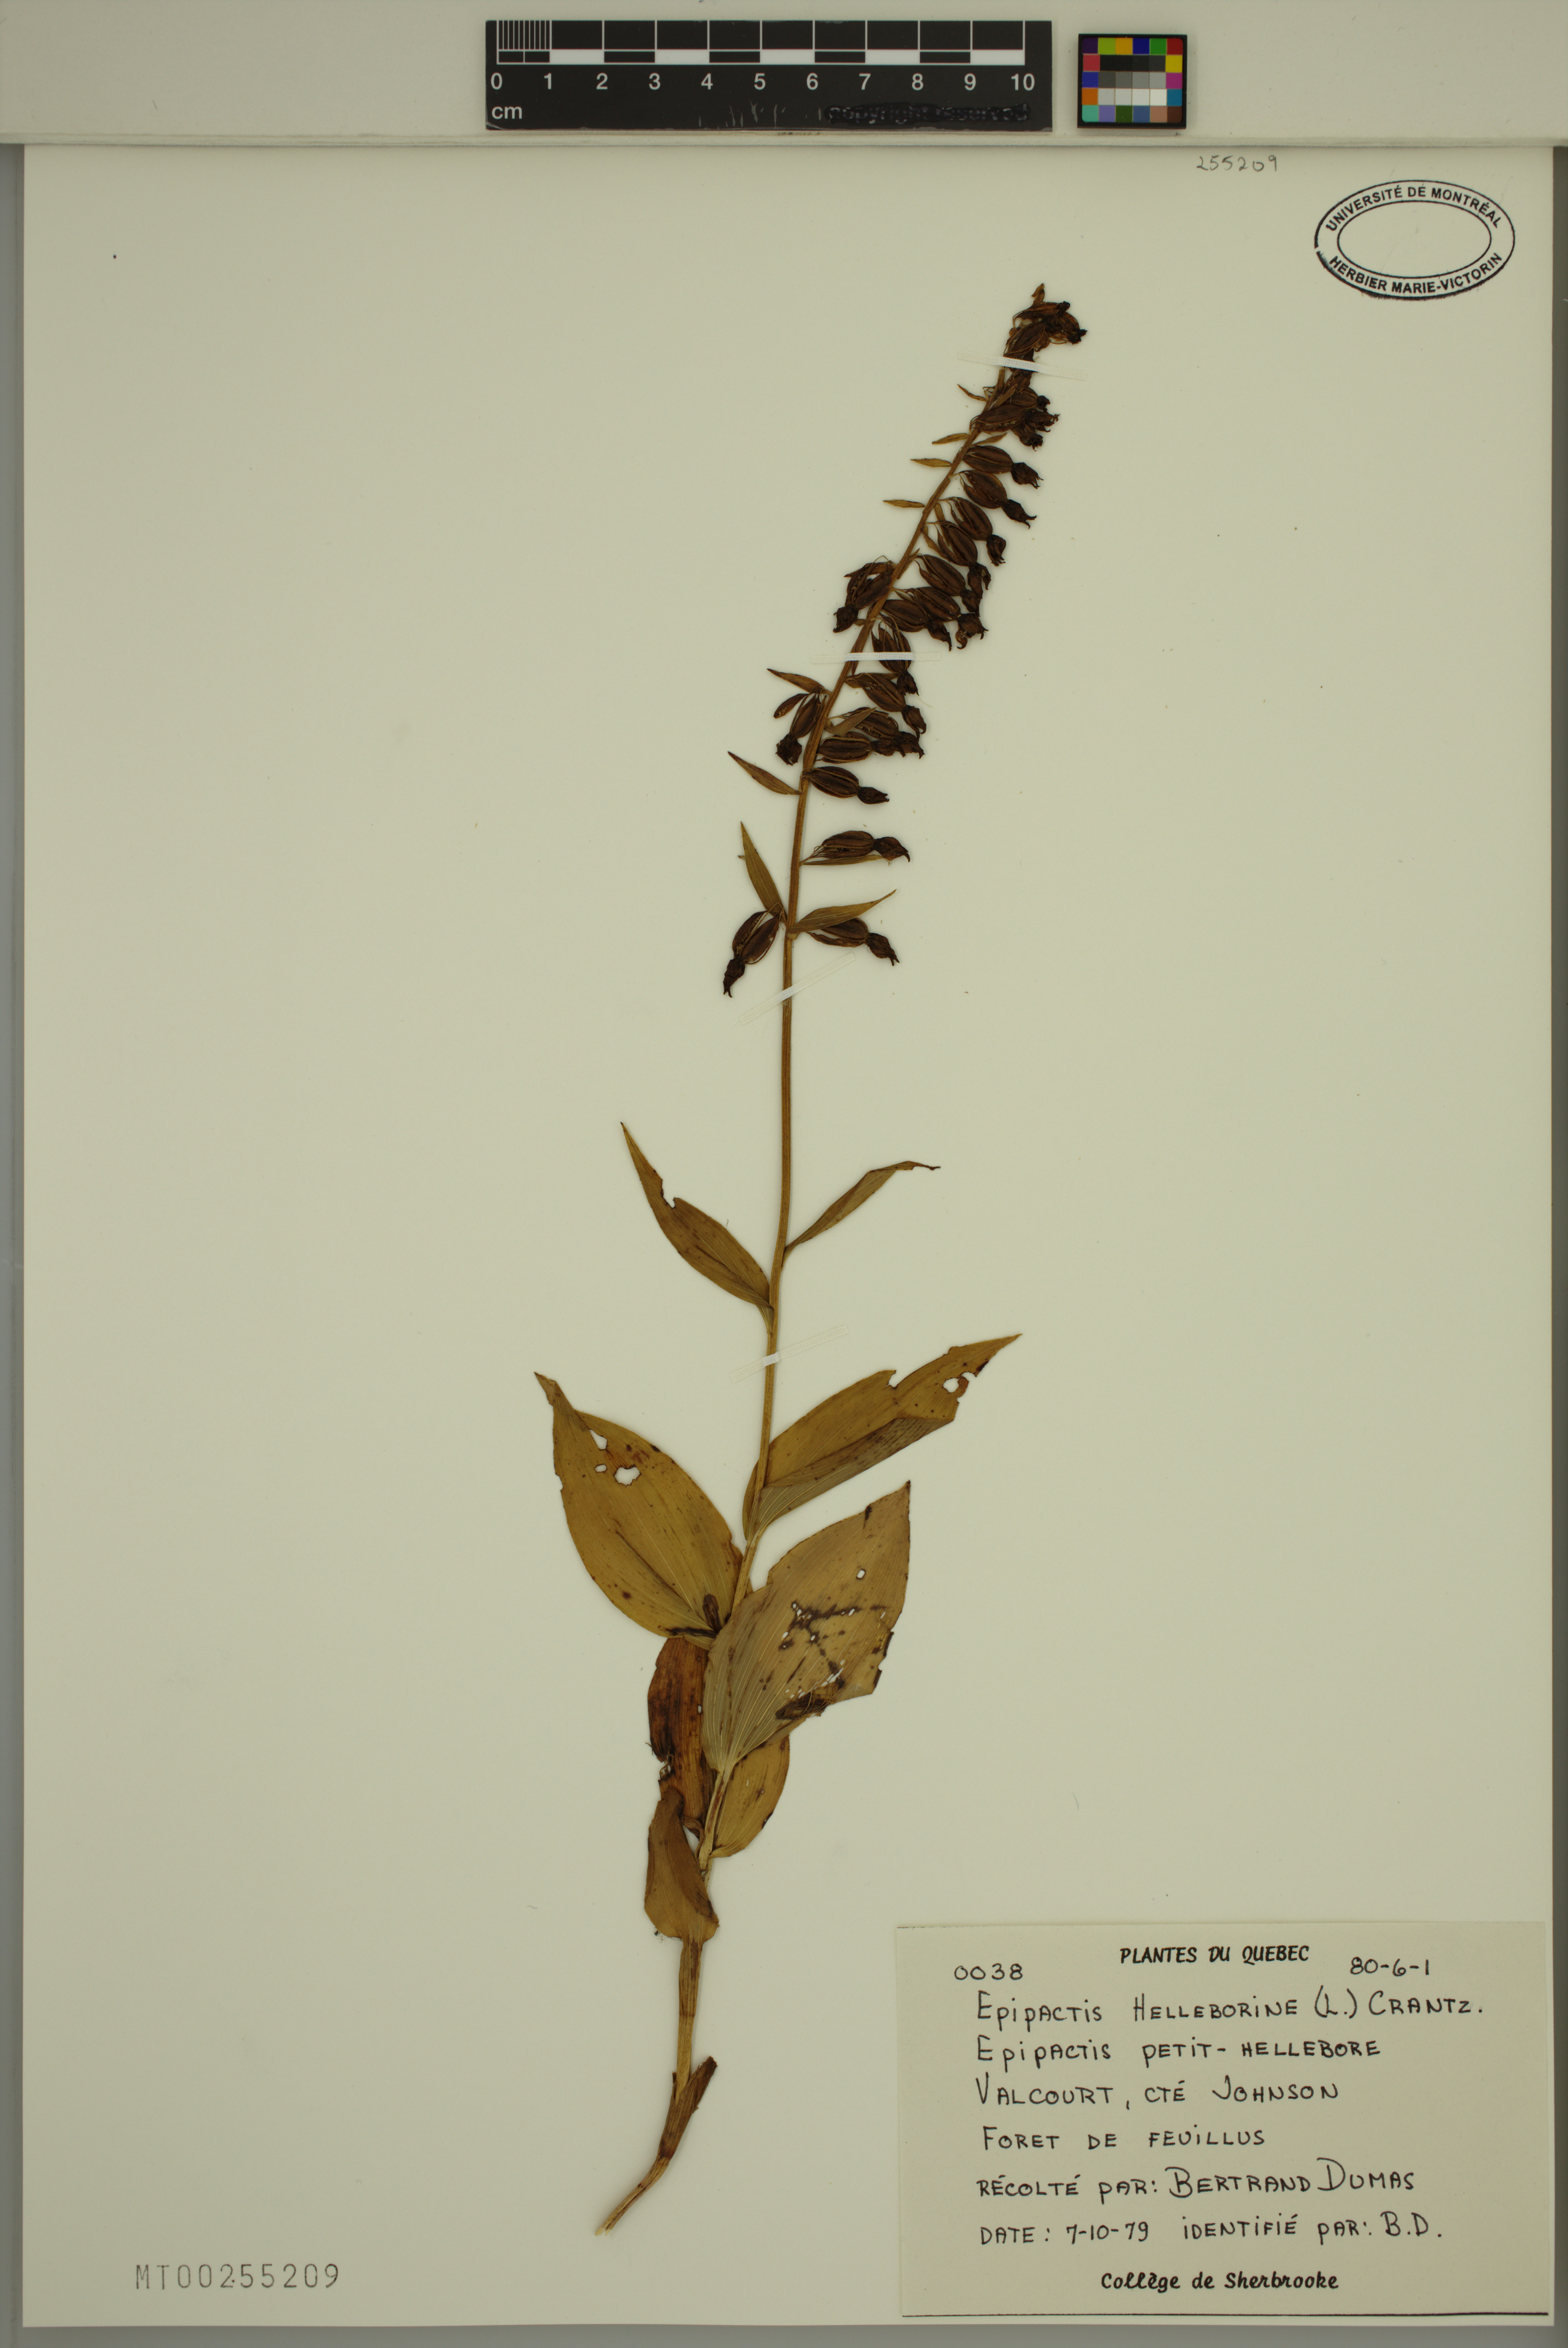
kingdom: Plantae
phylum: Tracheophyta
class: Liliopsida
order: Asparagales
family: Orchidaceae
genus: Epipactis
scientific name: Epipactis helleborine
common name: Broad-leaved helleborine
